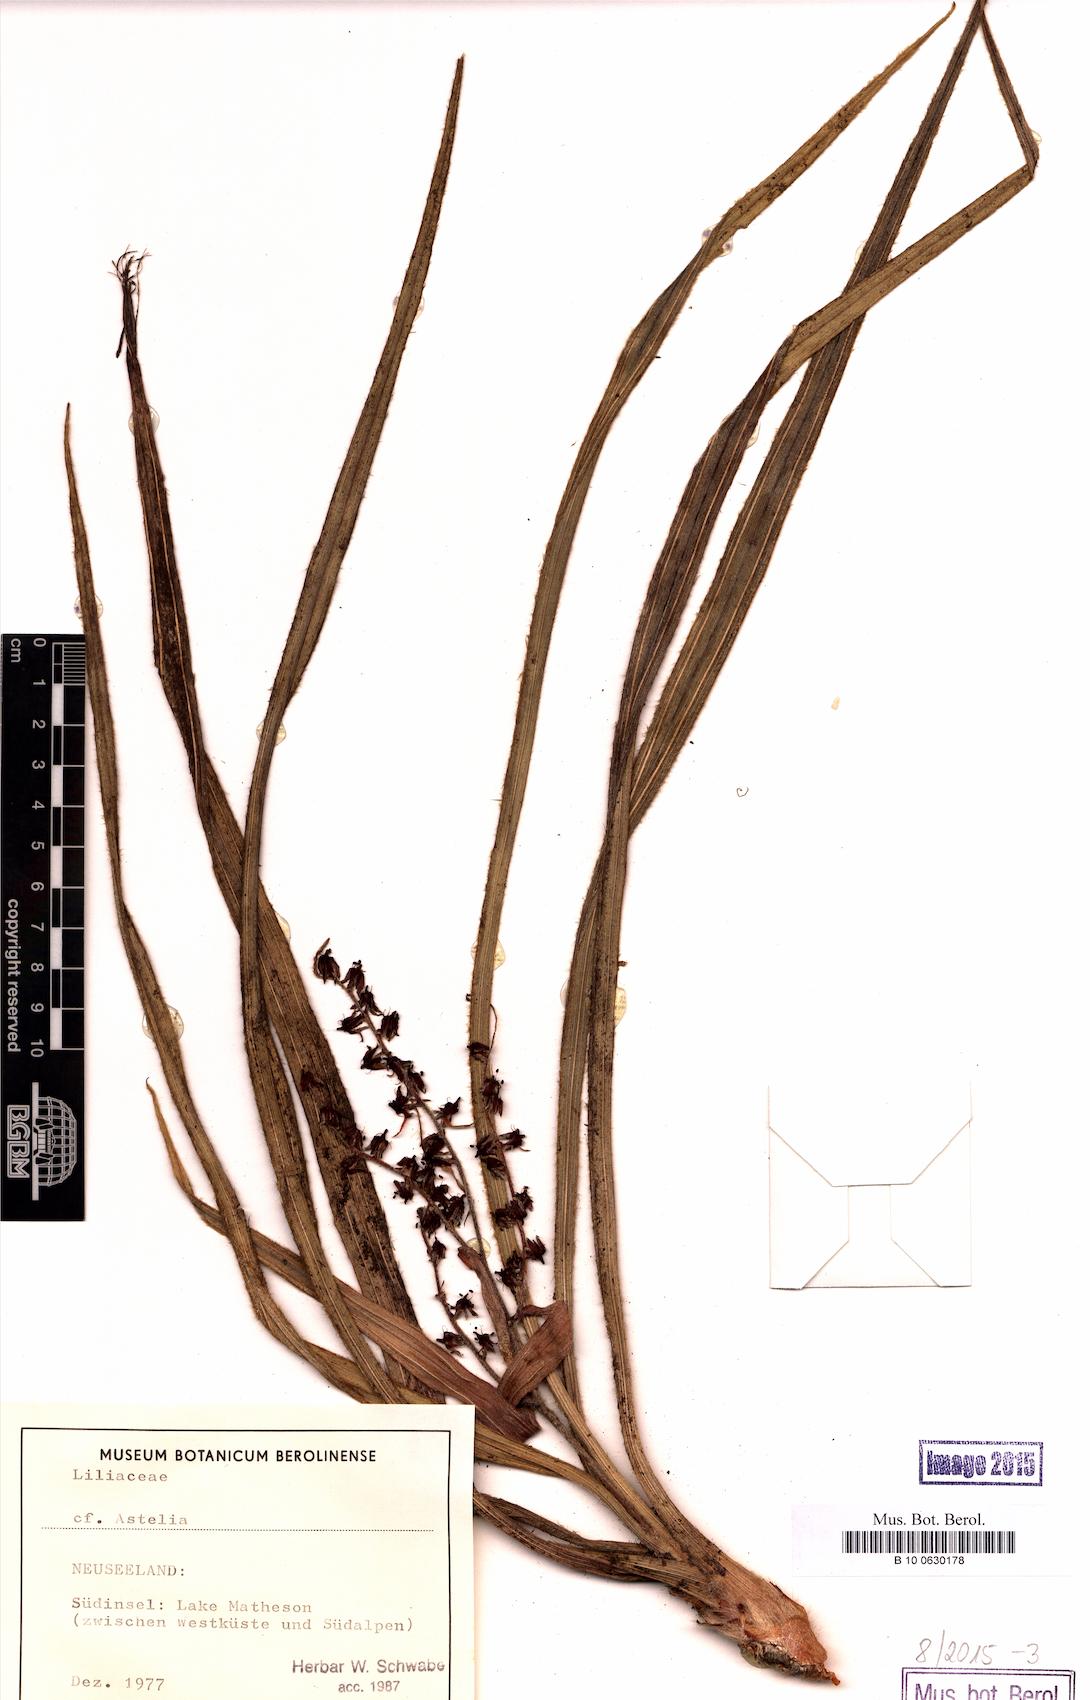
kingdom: Plantae
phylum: Tracheophyta
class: Liliopsida
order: Asparagales
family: Asteliaceae
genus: Astelia
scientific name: Astelia
